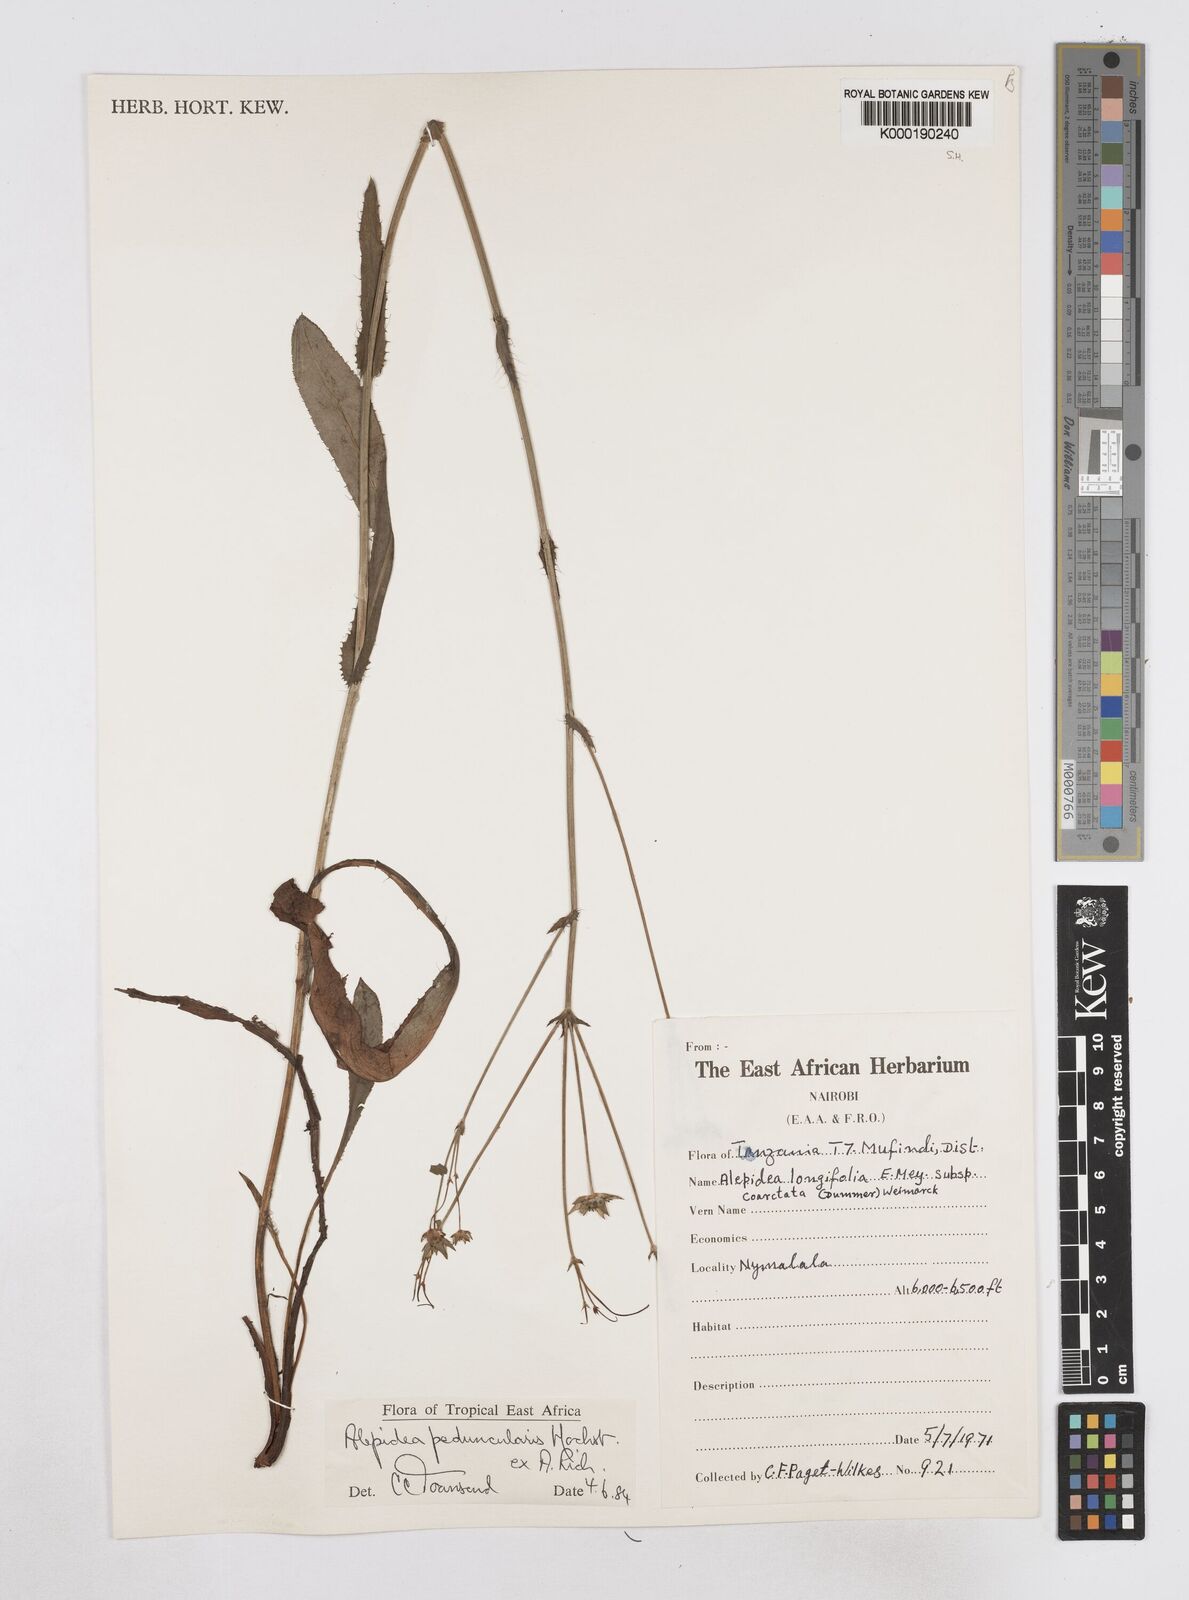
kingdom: Plantae
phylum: Tracheophyta
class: Magnoliopsida
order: Apiales
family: Apiaceae
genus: Alepidea
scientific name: Alepidea peduncularis
